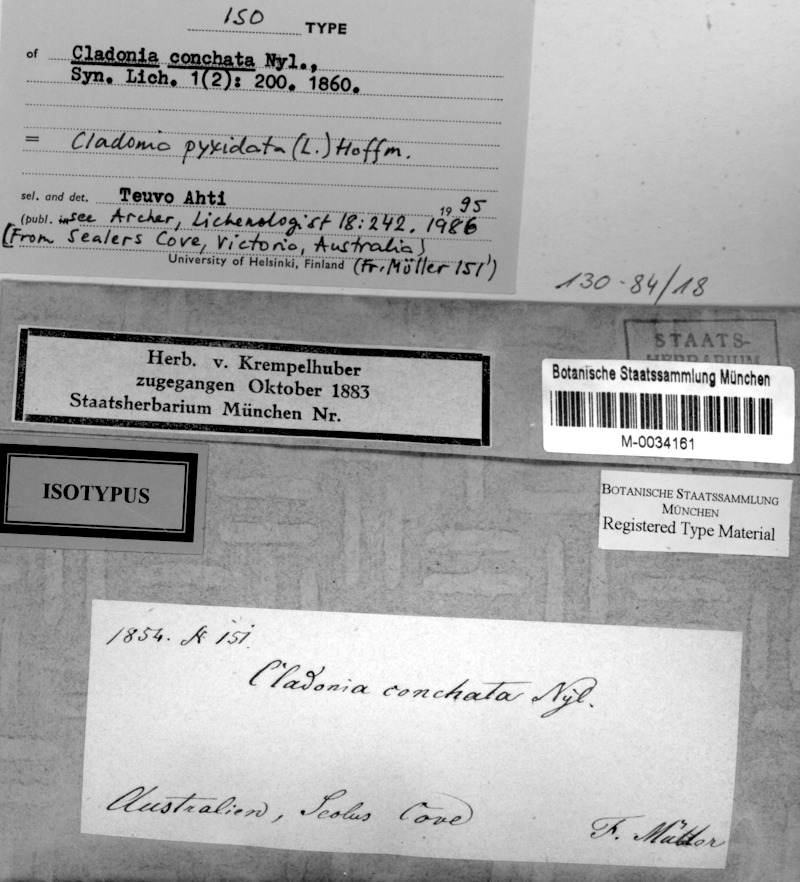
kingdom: Fungi
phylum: Ascomycota
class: Lecanoromycetes
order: Lecanorales
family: Cladoniaceae
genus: Cladonia
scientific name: Cladonia pyxidata
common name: Pebbled pixie cup
